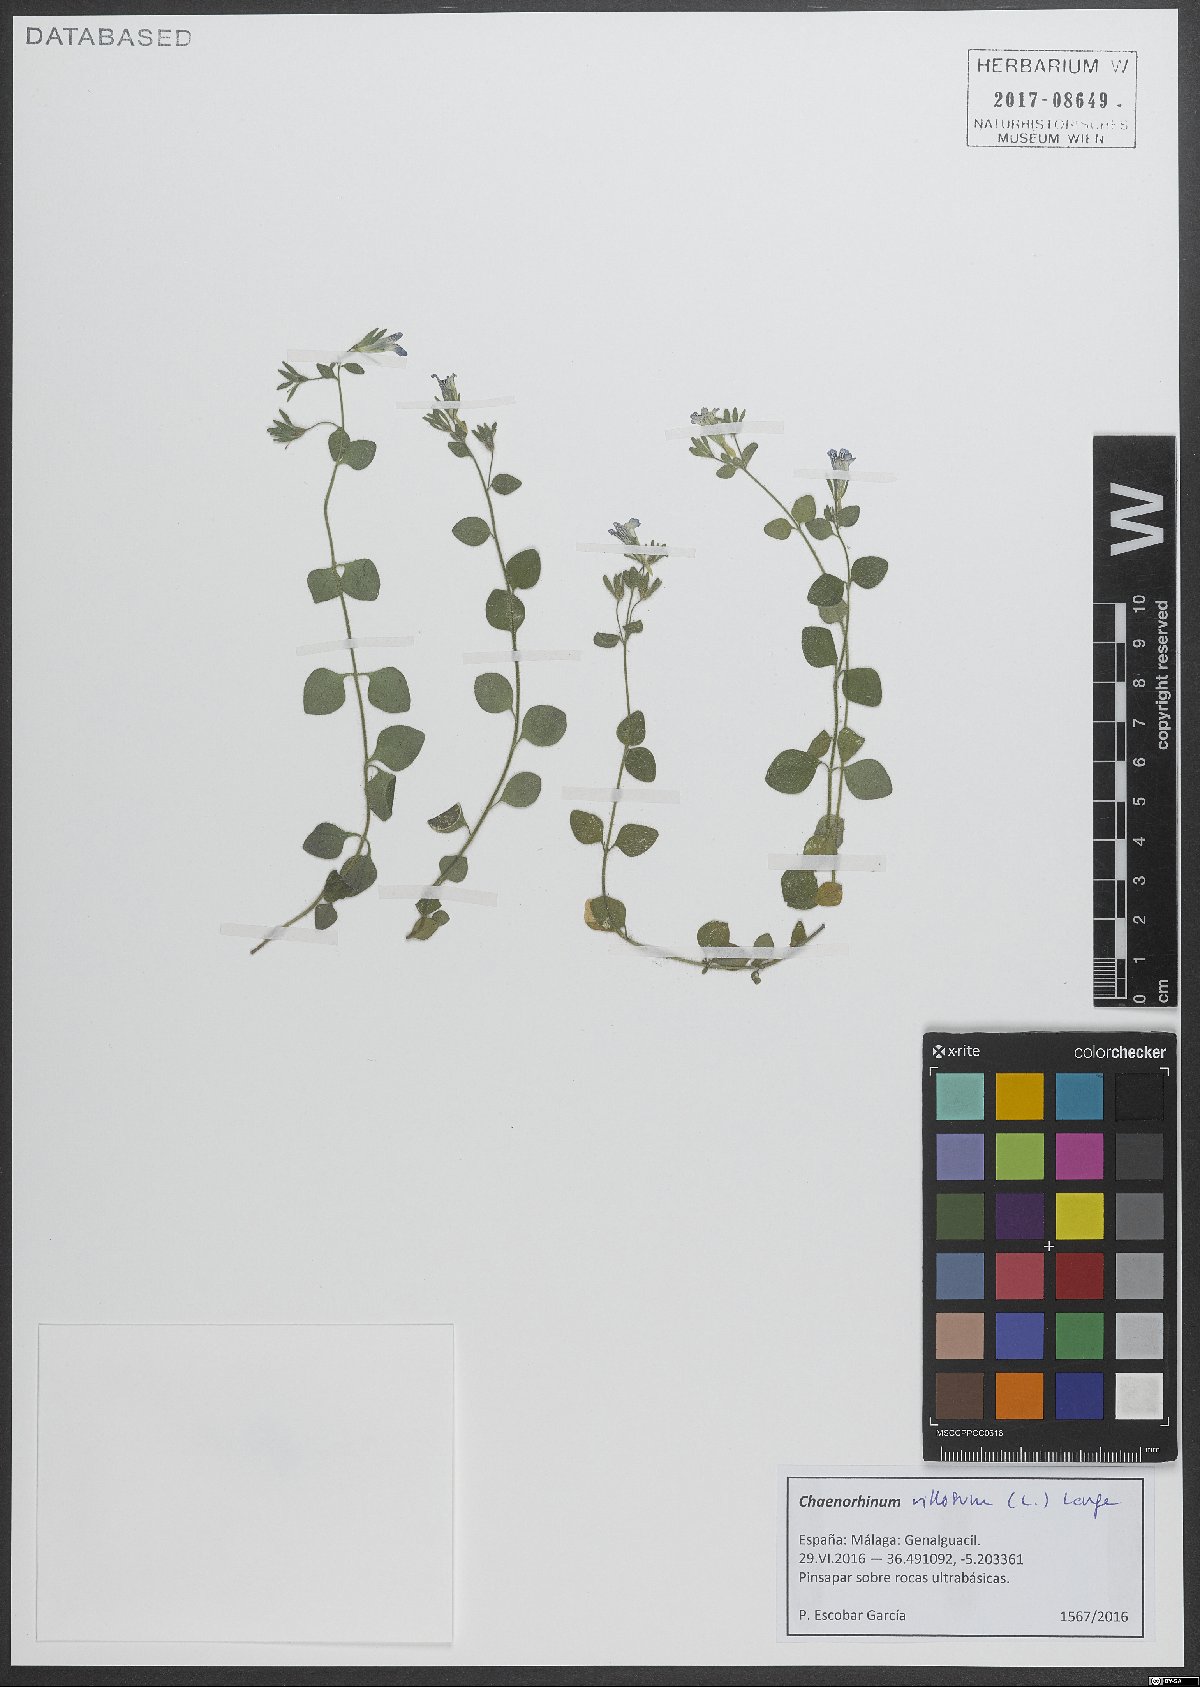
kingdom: Plantae
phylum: Tracheophyta
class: Magnoliopsida
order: Lamiales
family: Plantaginaceae
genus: Chaenorhinum
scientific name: Chaenorhinum villosum
